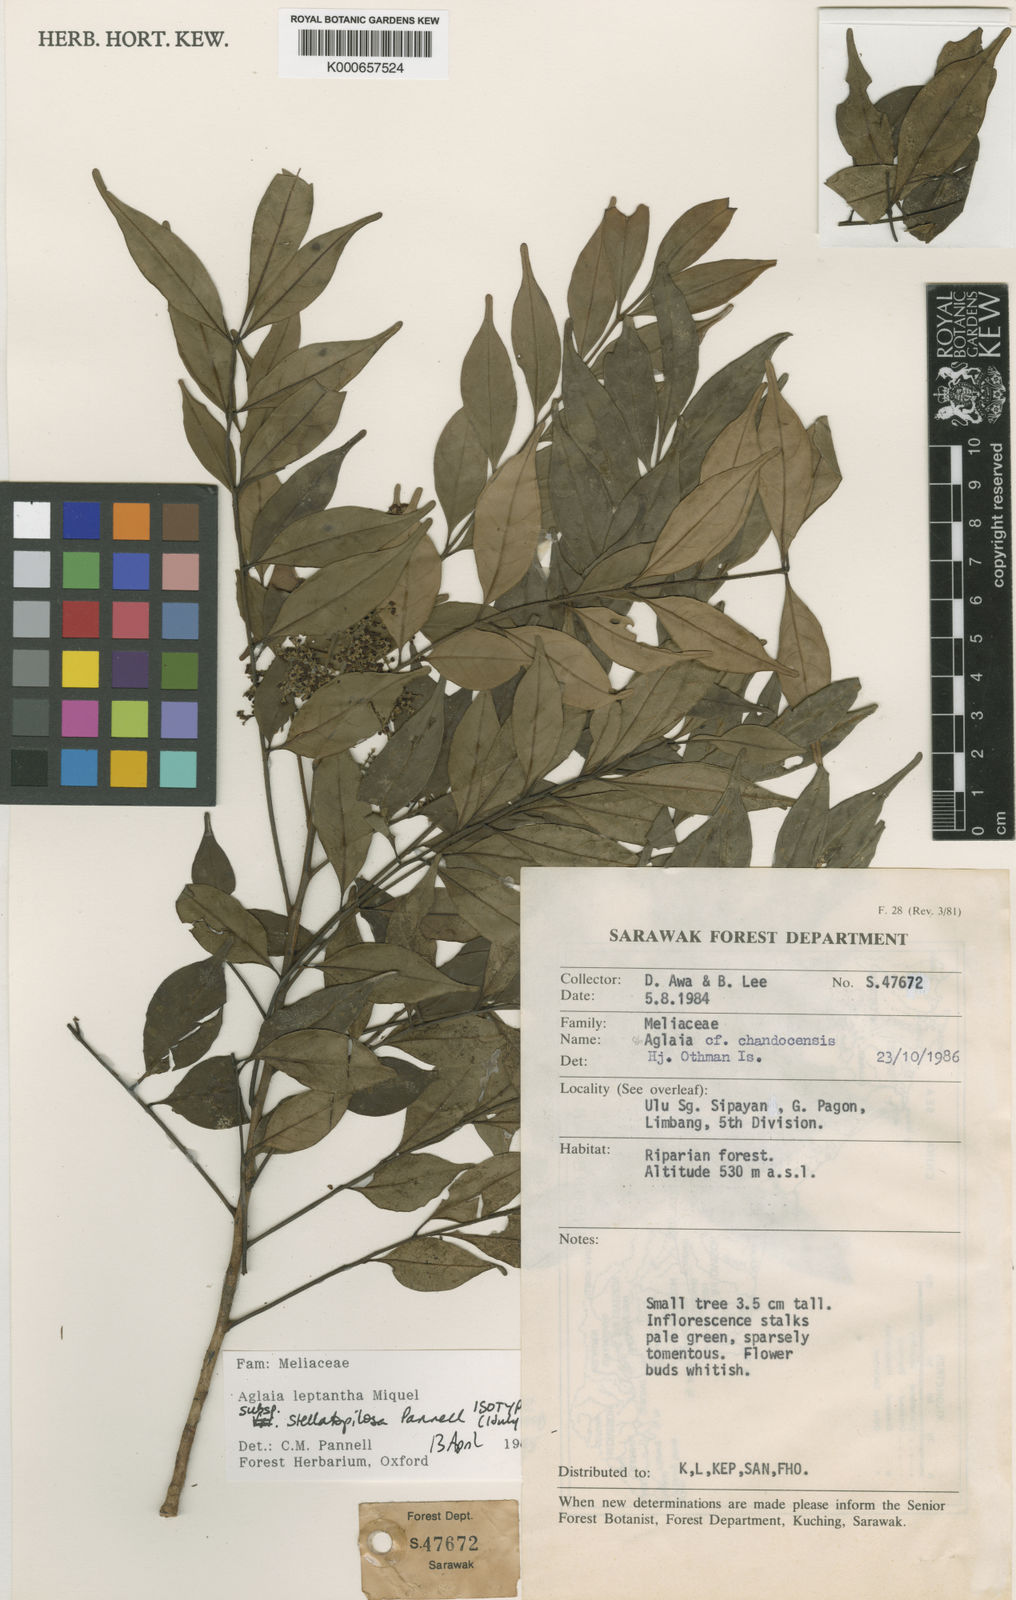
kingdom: Plantae
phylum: Tracheophyta
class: Magnoliopsida
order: Sapindales
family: Meliaceae
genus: Aglaia
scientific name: Aglaia stellatopilosa
